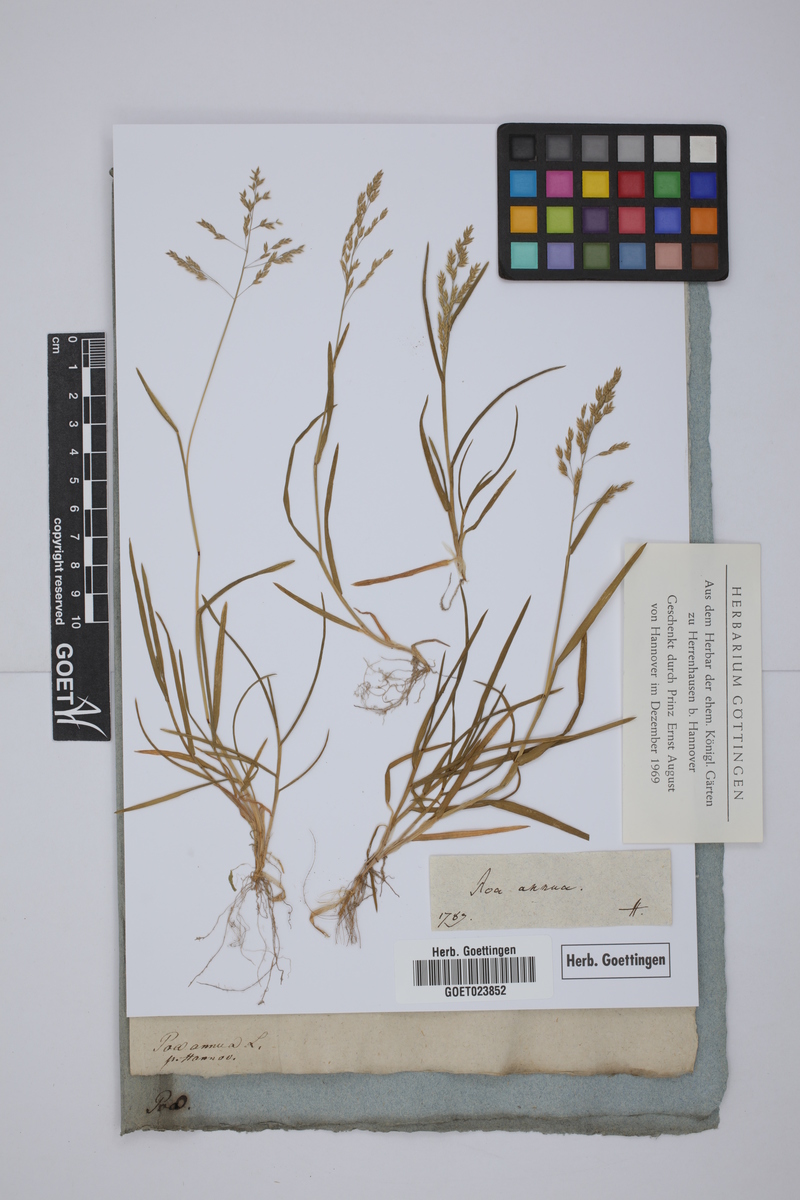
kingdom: Plantae
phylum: Tracheophyta
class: Liliopsida
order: Poales
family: Poaceae
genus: Poa
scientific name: Poa annua
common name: Annual bluegrass
